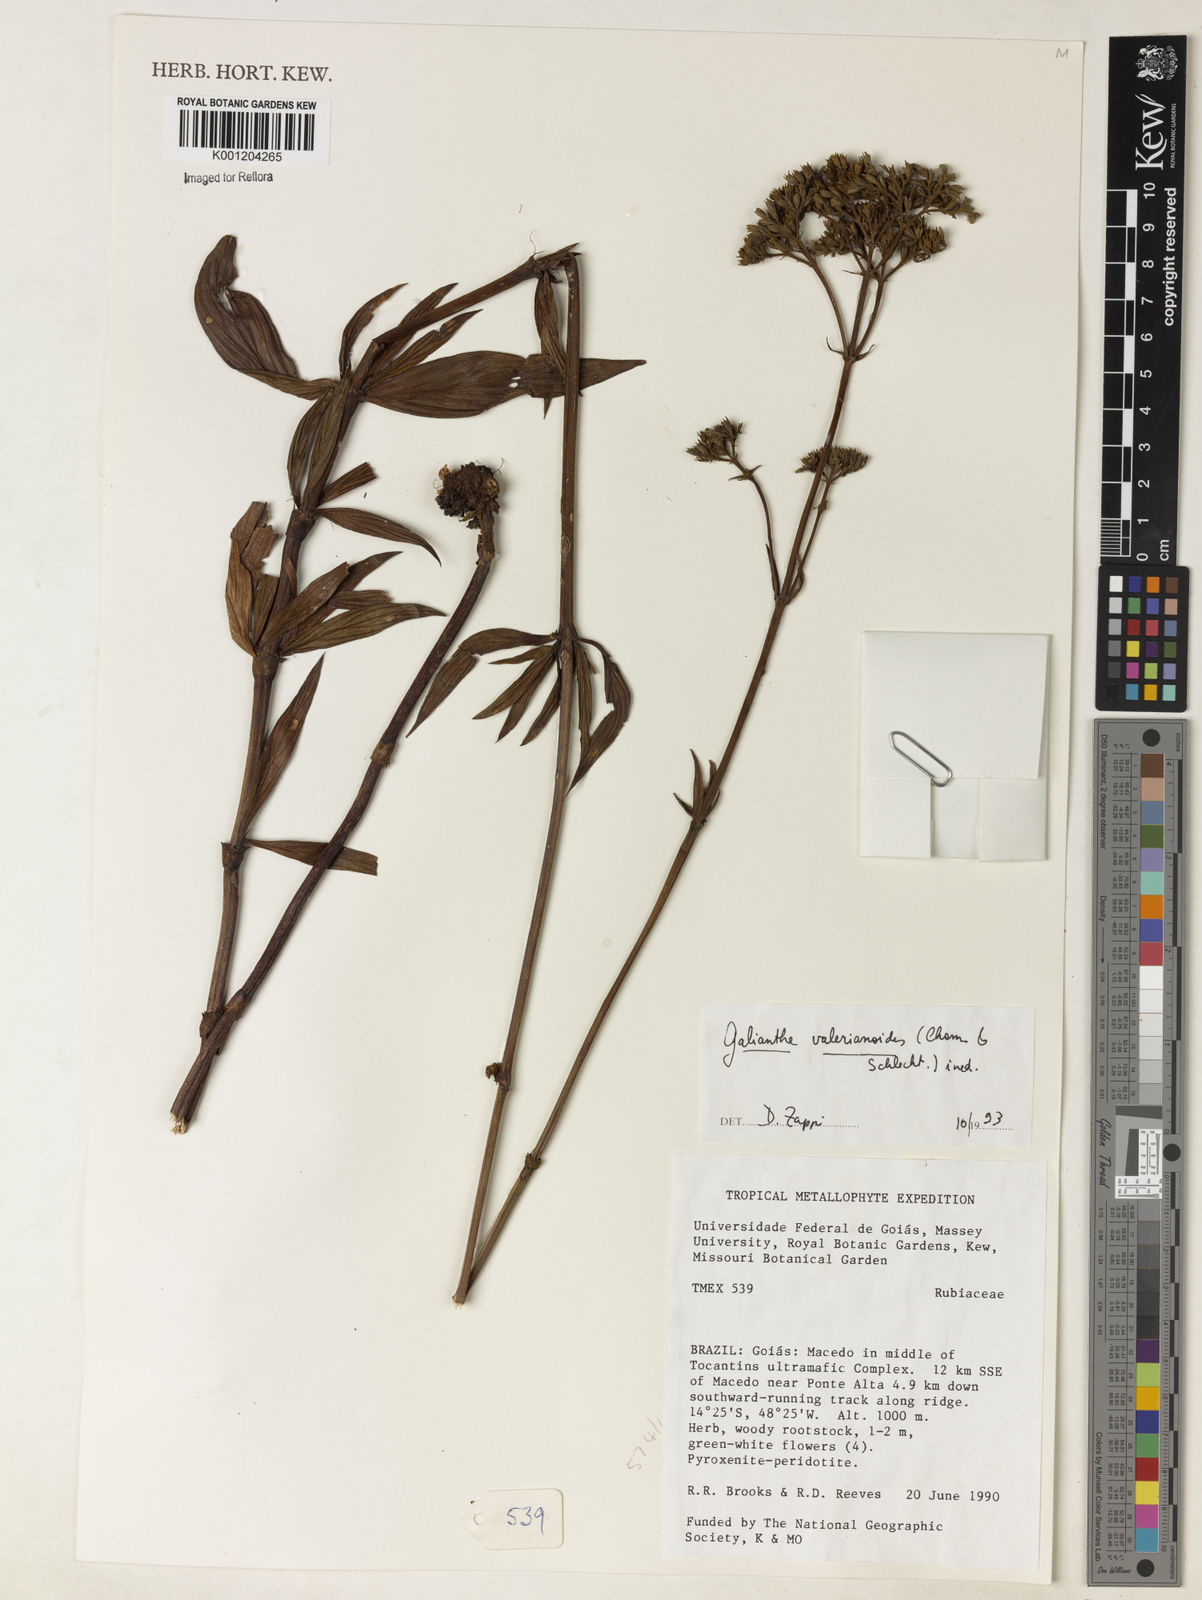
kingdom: Plantae
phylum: Tracheophyta
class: Magnoliopsida
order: Gentianales
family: Rubiaceae
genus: Galianthe
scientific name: Galianthe valerianoides
